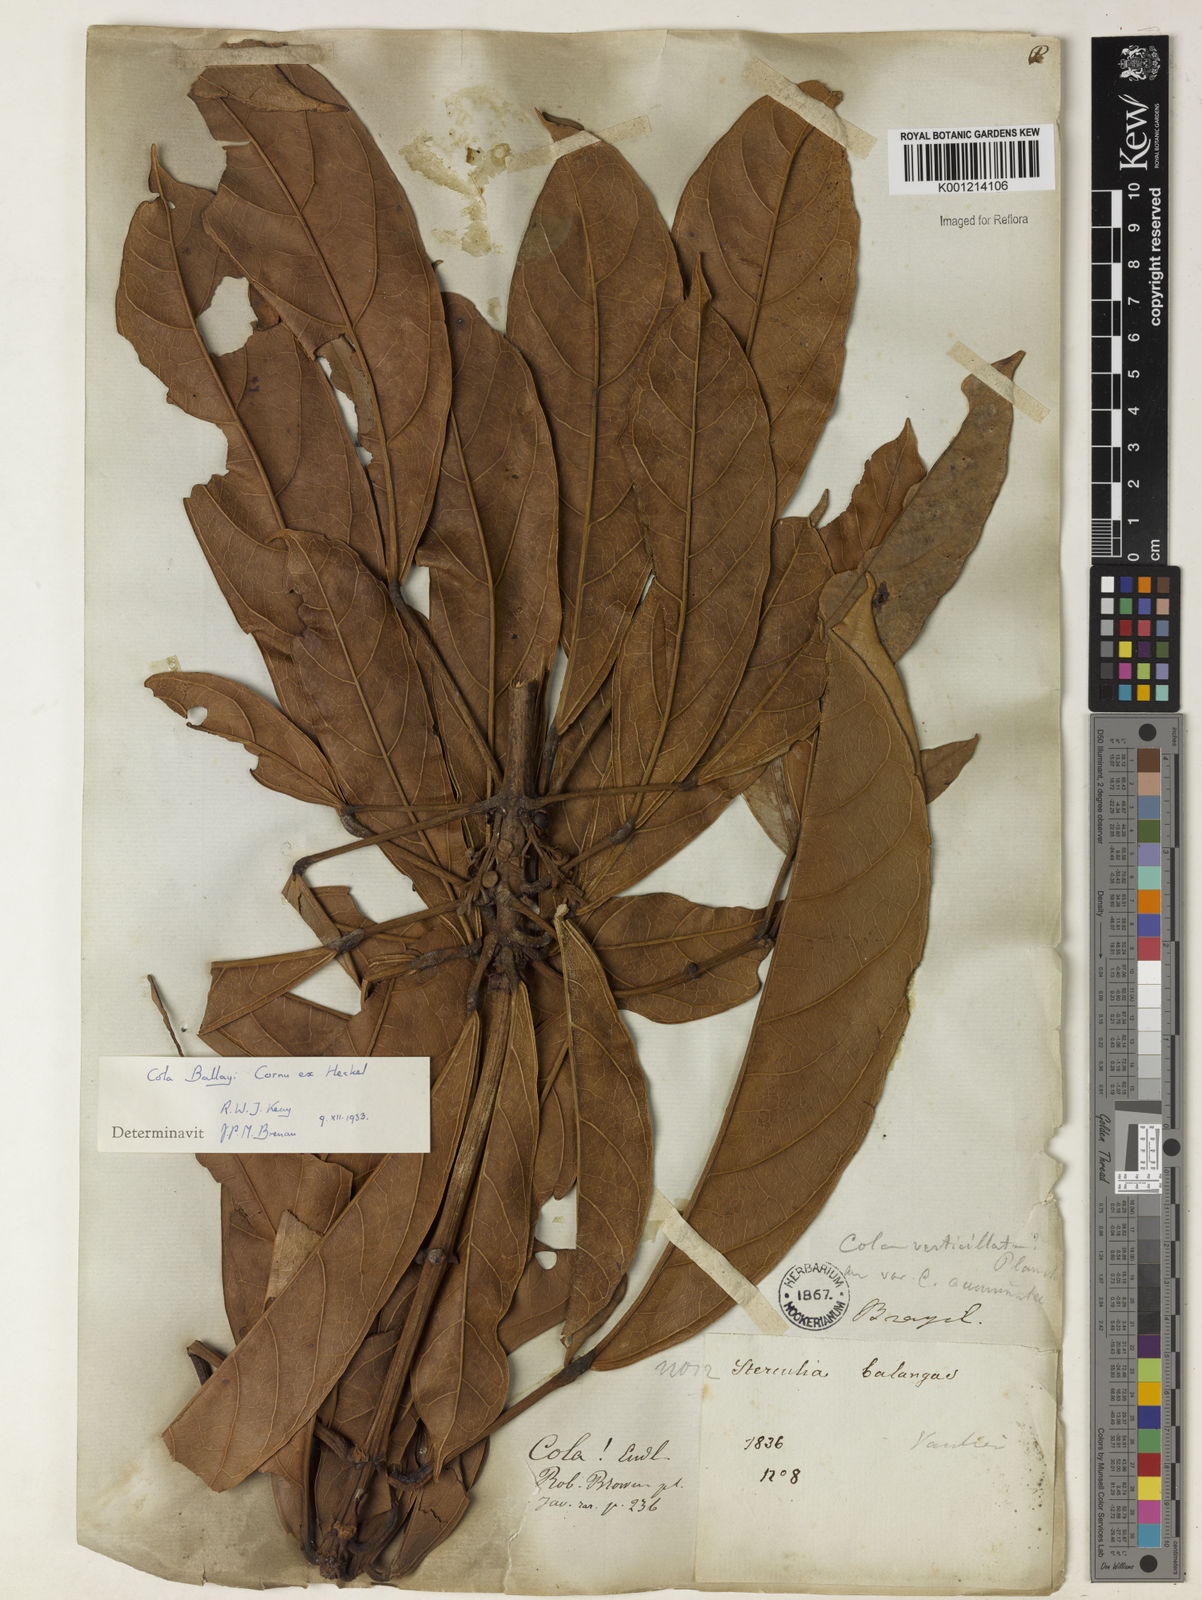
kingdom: Plantae
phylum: Tracheophyta
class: Magnoliopsida
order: Malvales
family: Malvaceae
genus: Cola
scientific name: Cola ballayi
